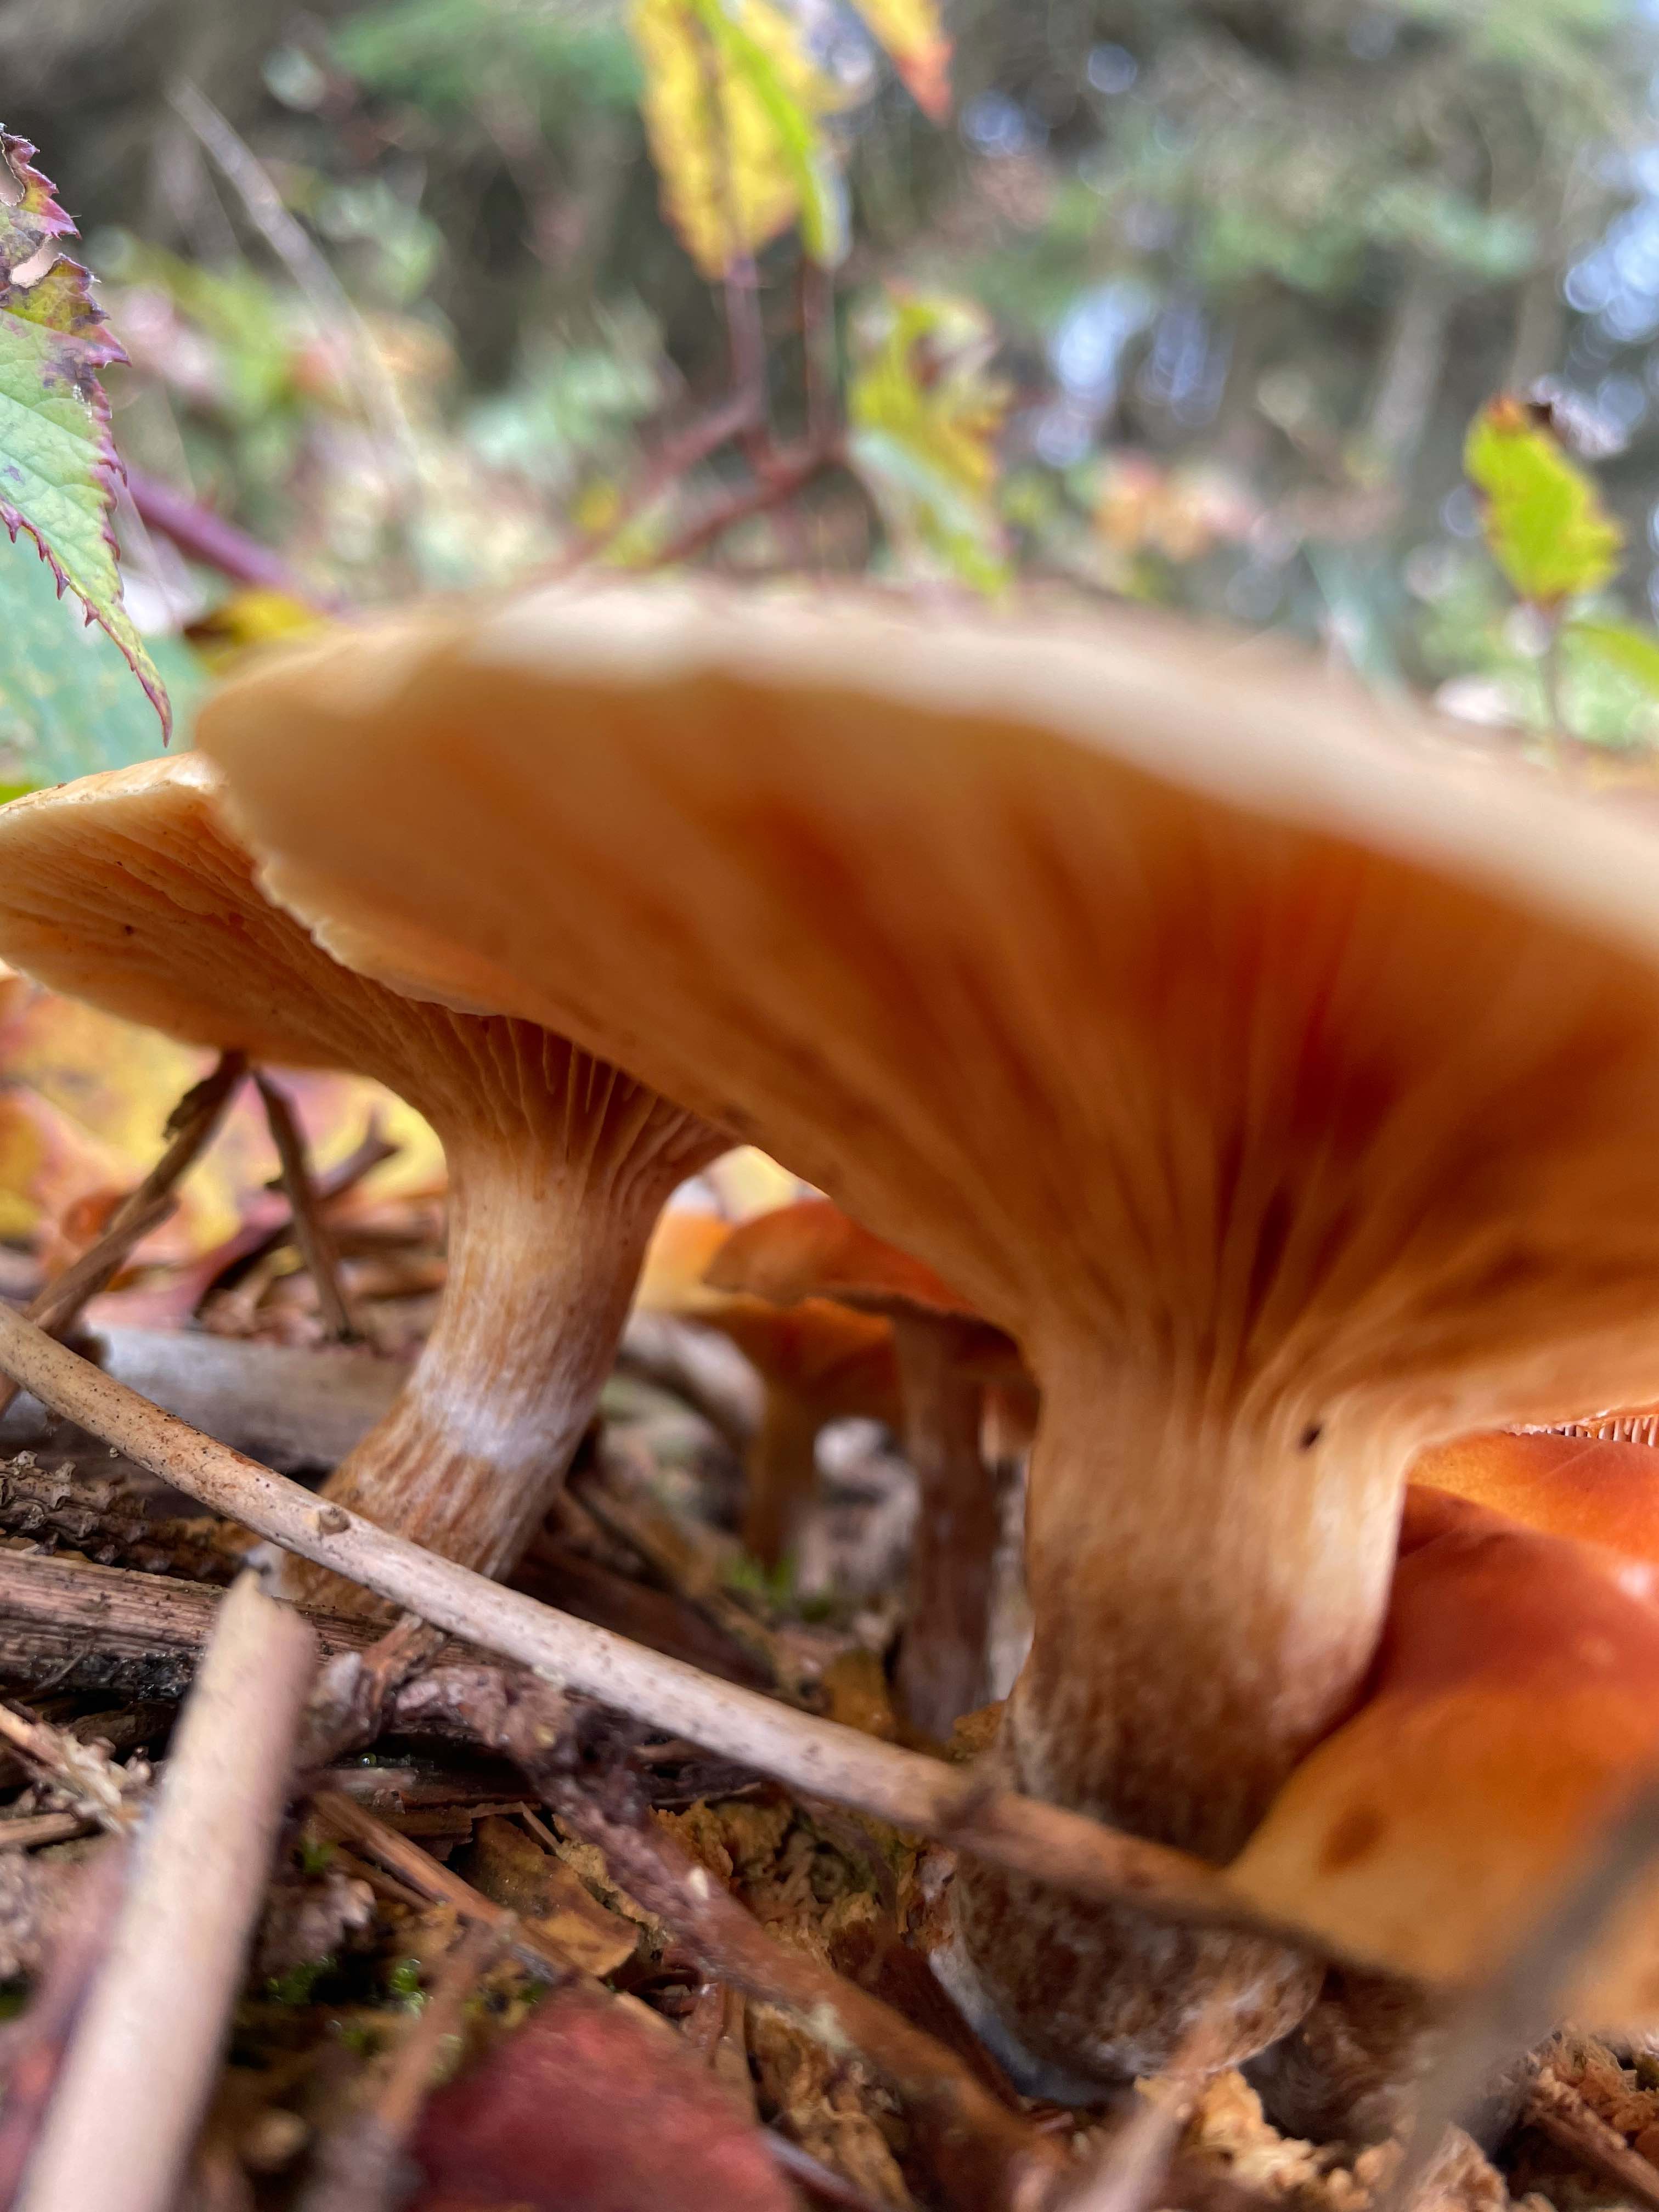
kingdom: Fungi
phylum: Basidiomycota
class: Agaricomycetes
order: Agaricales
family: Hymenogastraceae
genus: Gymnopilus
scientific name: Gymnopilus penetrans
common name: plettet flammehat
